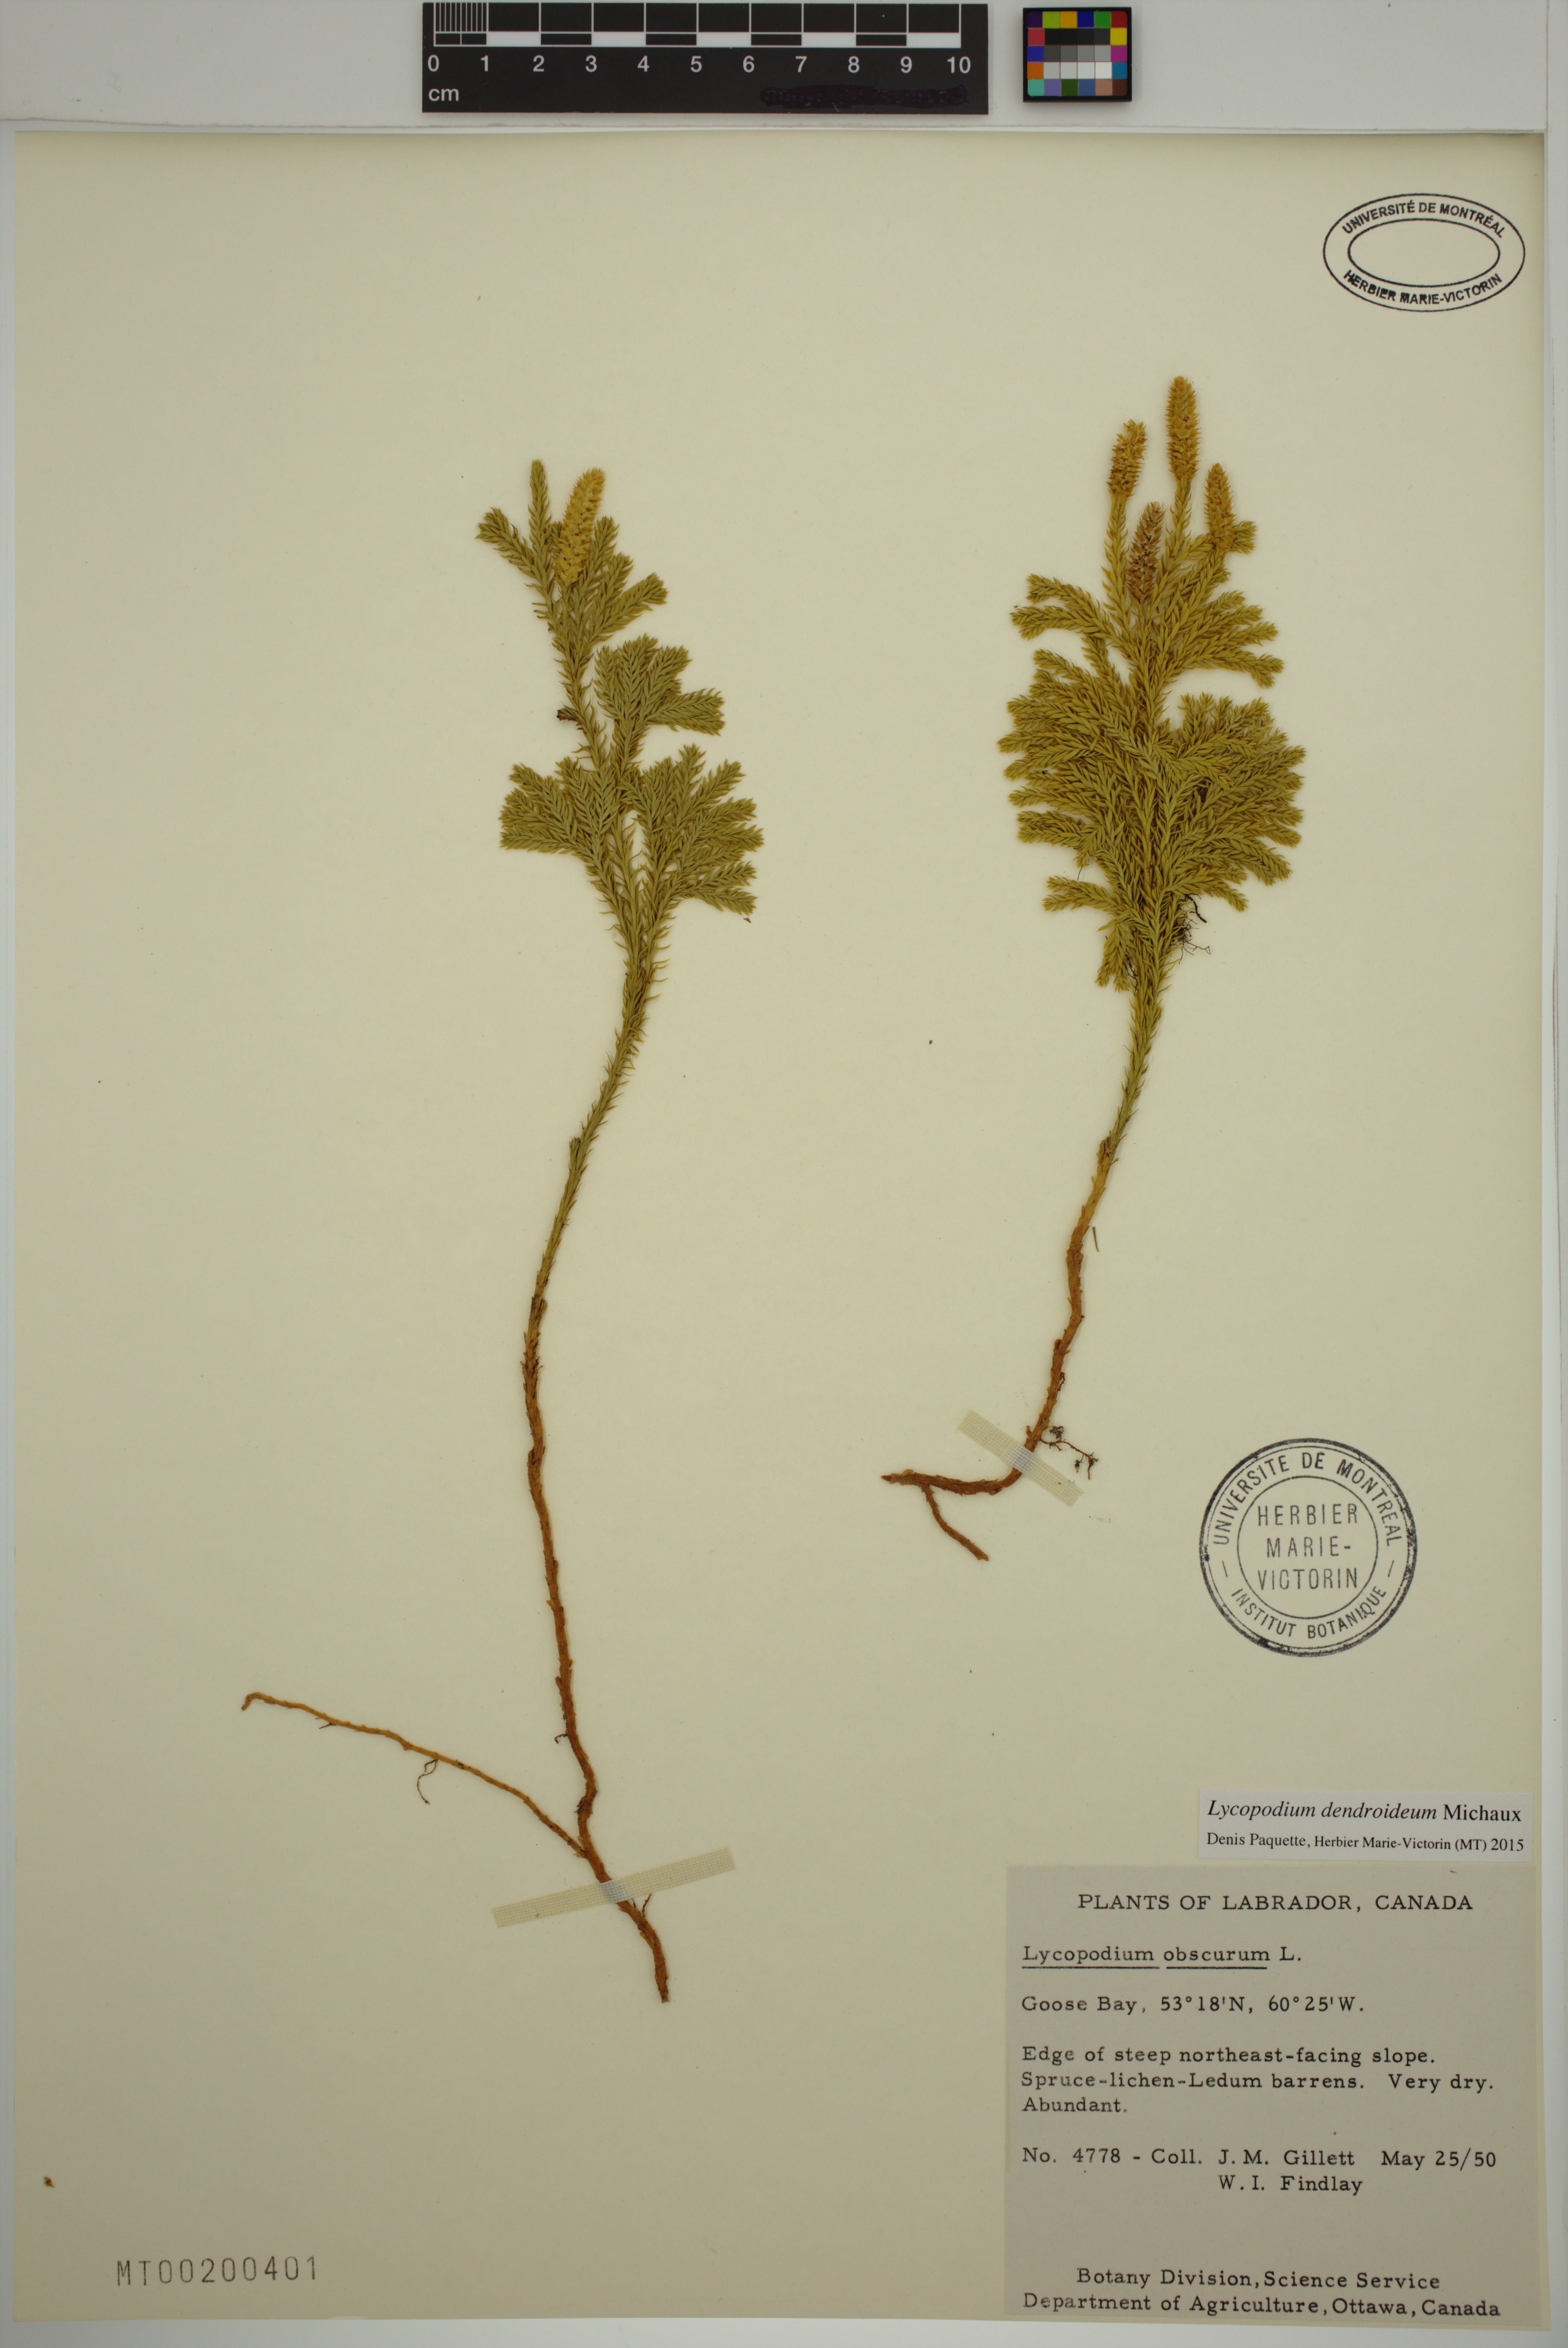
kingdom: Plantae
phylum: Tracheophyta
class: Lycopodiopsida
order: Lycopodiales
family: Lycopodiaceae
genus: Dendrolycopodium
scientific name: Dendrolycopodium dendroideum
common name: Northern tree-clubmoss
